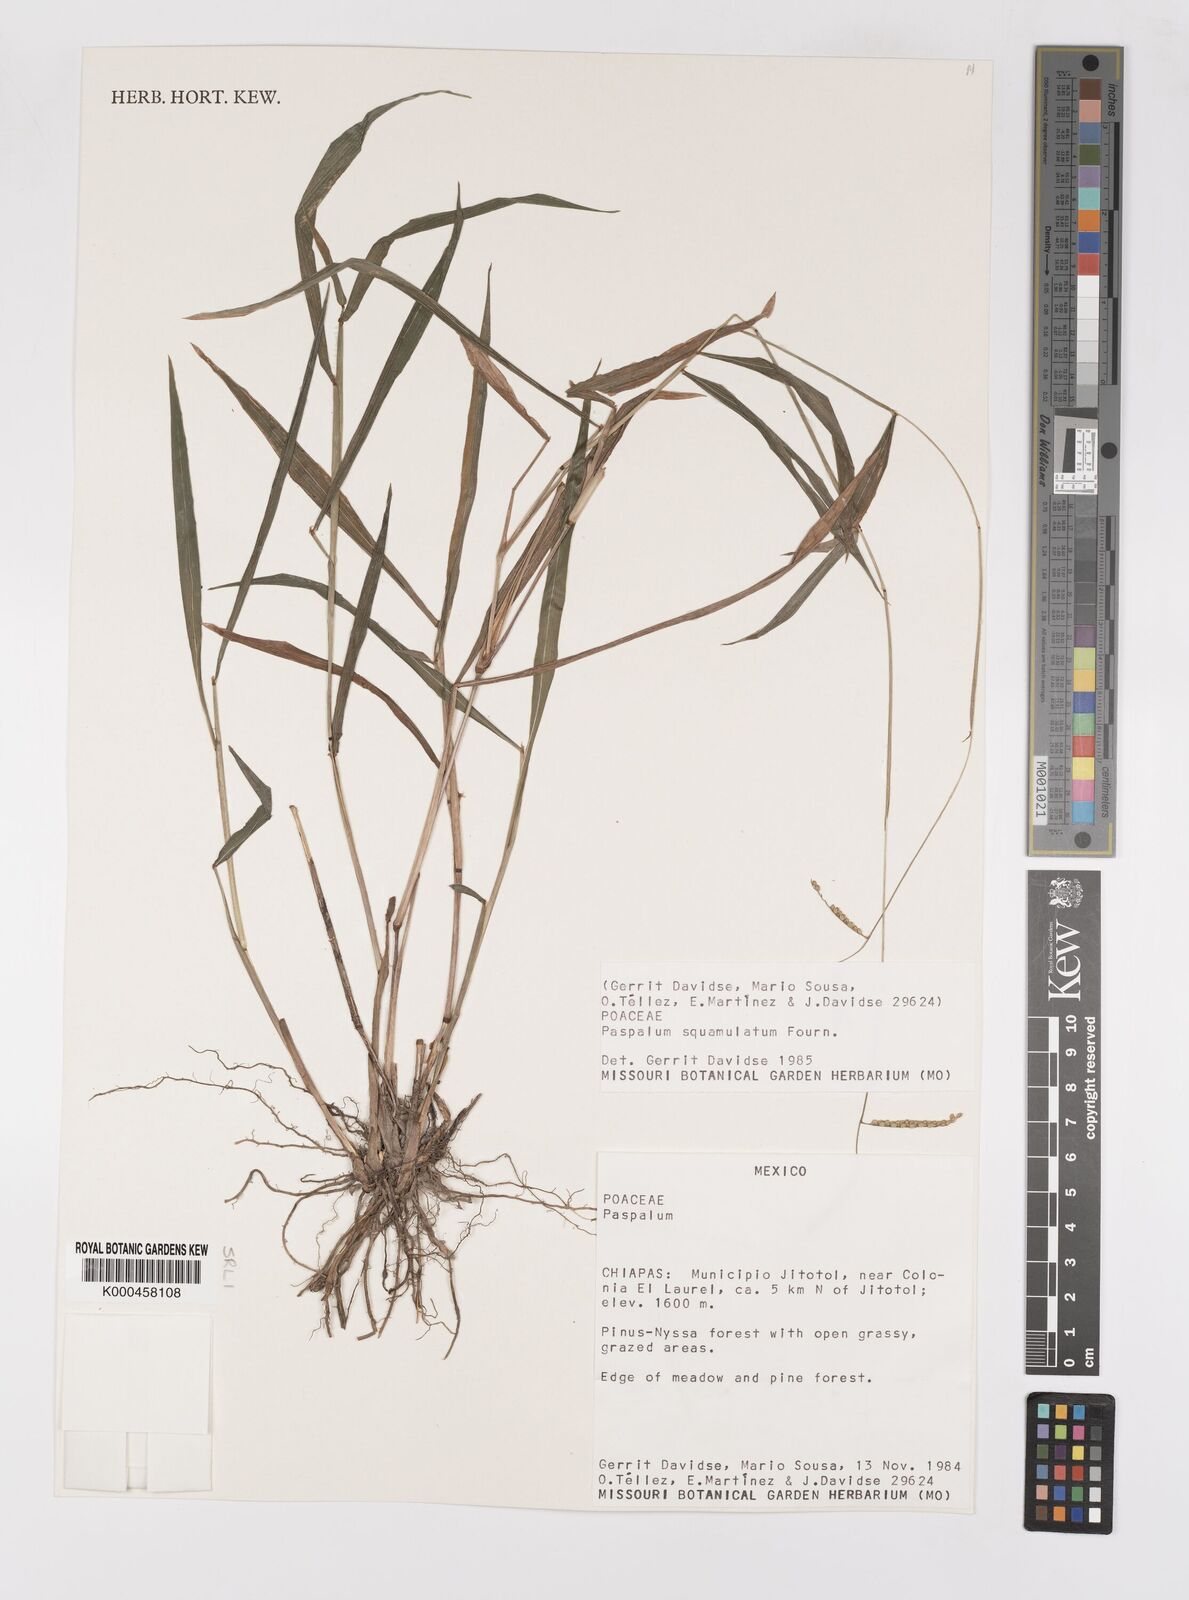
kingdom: Plantae
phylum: Tracheophyta
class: Liliopsida
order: Poales
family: Poaceae
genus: Paspalum
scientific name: Paspalum
